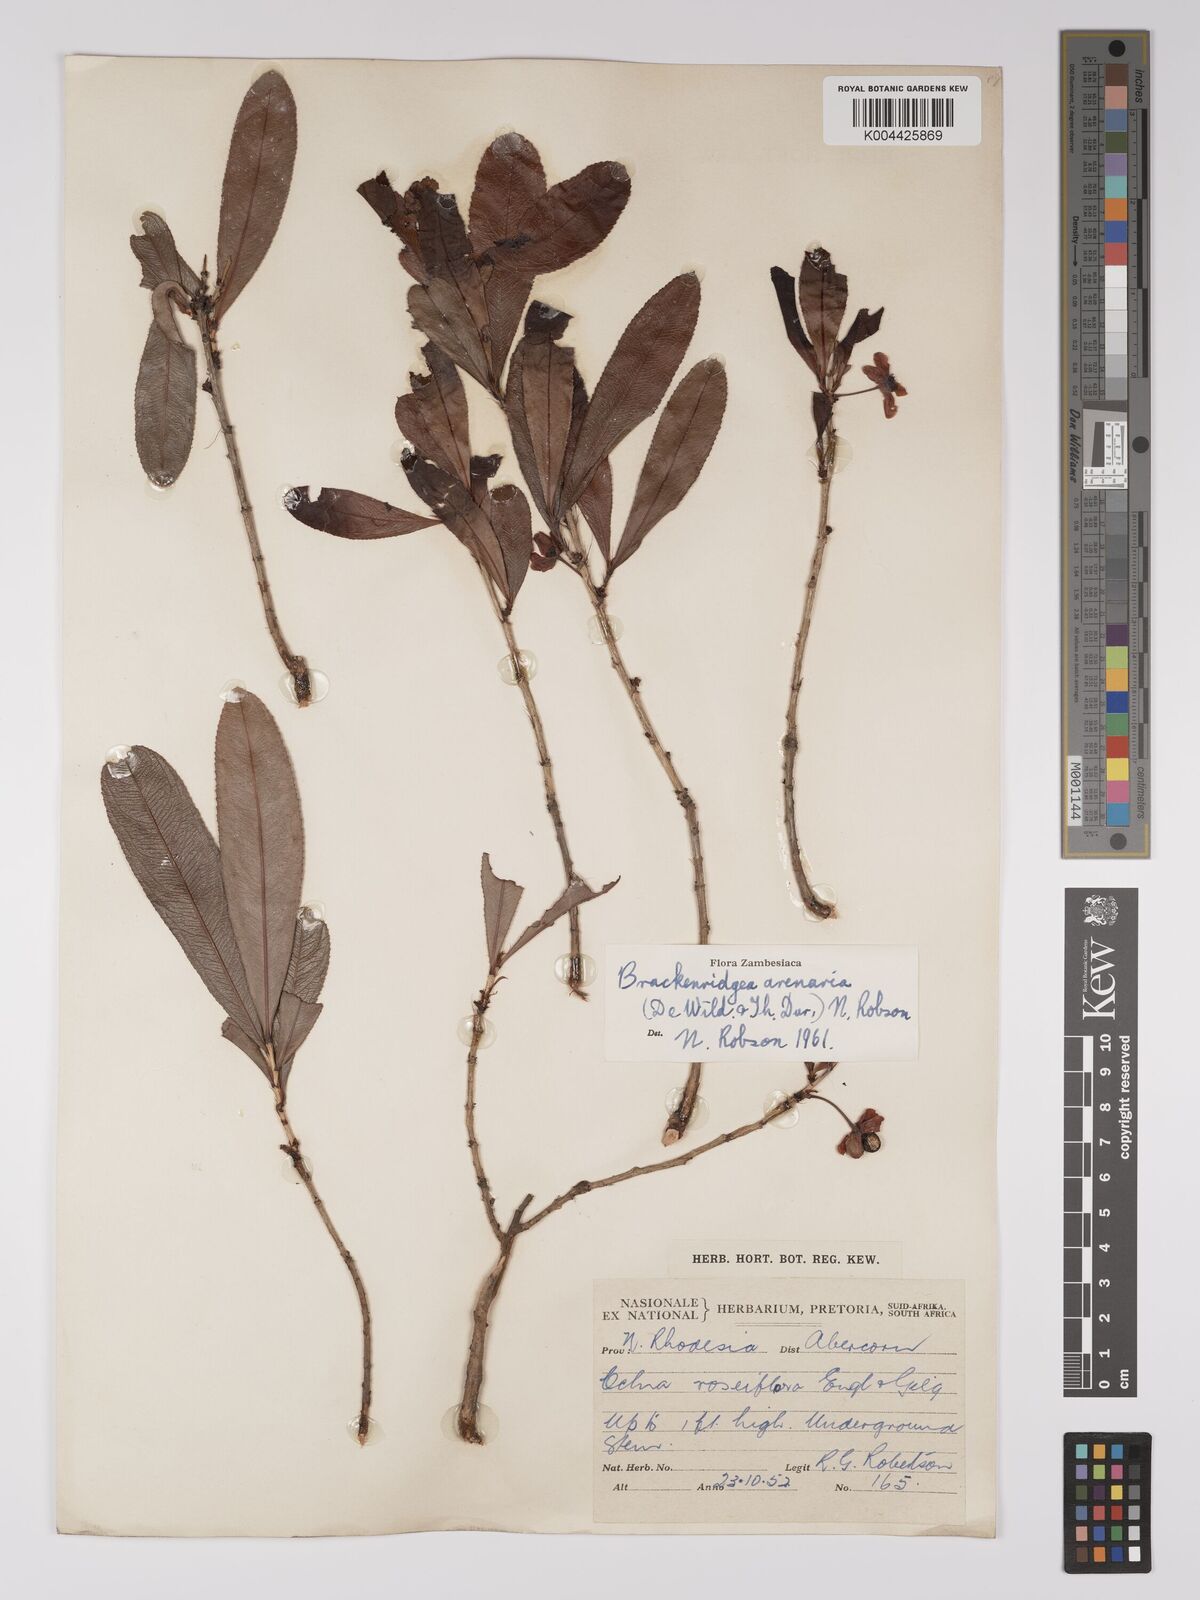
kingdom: Plantae
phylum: Tracheophyta
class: Magnoliopsida
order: Malpighiales
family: Ochnaceae
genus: Ochna
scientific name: Ochna arenaria
